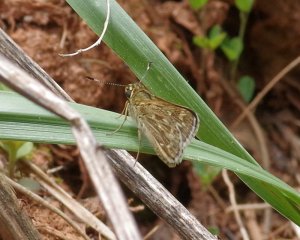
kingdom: Animalia
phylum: Arthropoda
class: Insecta
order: Lepidoptera
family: Hesperiidae
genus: Mastor
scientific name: Mastor carolina
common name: Reversed Roadside-skipper
